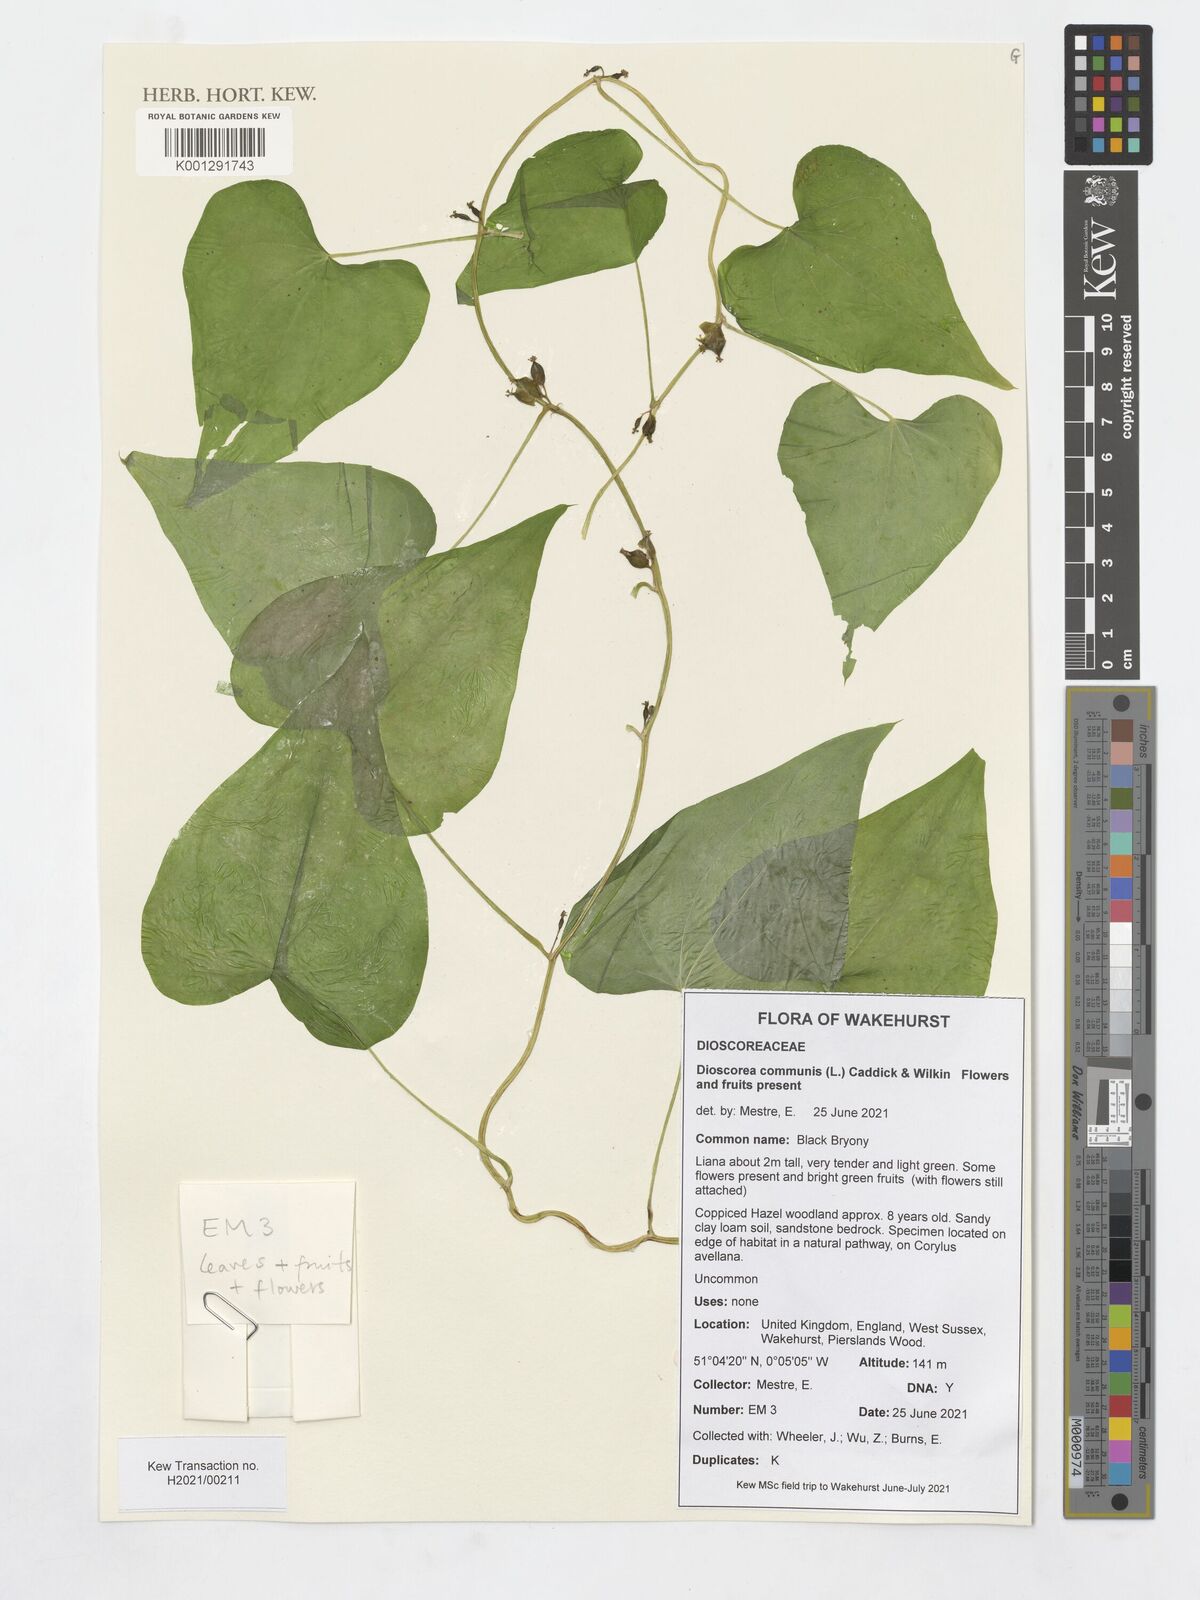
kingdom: Plantae
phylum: Tracheophyta
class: Liliopsida
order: Dioscoreales
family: Dioscoreaceae
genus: Dioscorea
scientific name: Dioscorea communis
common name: Black-bindweed
